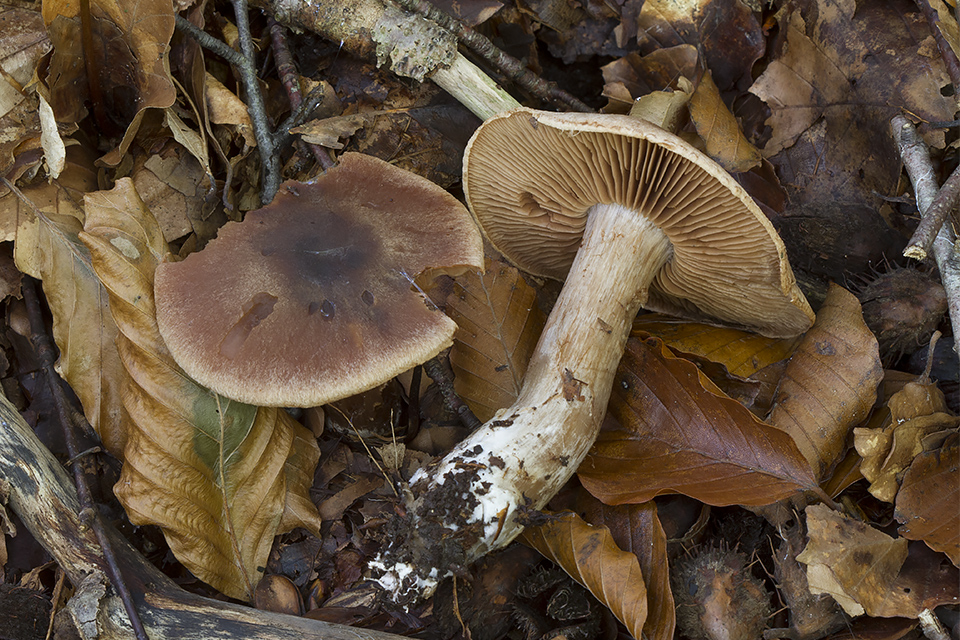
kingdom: Fungi
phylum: Basidiomycota
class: Agaricomycetes
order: Agaricales
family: Cortinariaceae
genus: Cortinarius
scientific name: Cortinarius stipitemirus
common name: vildsvine-slørhat
